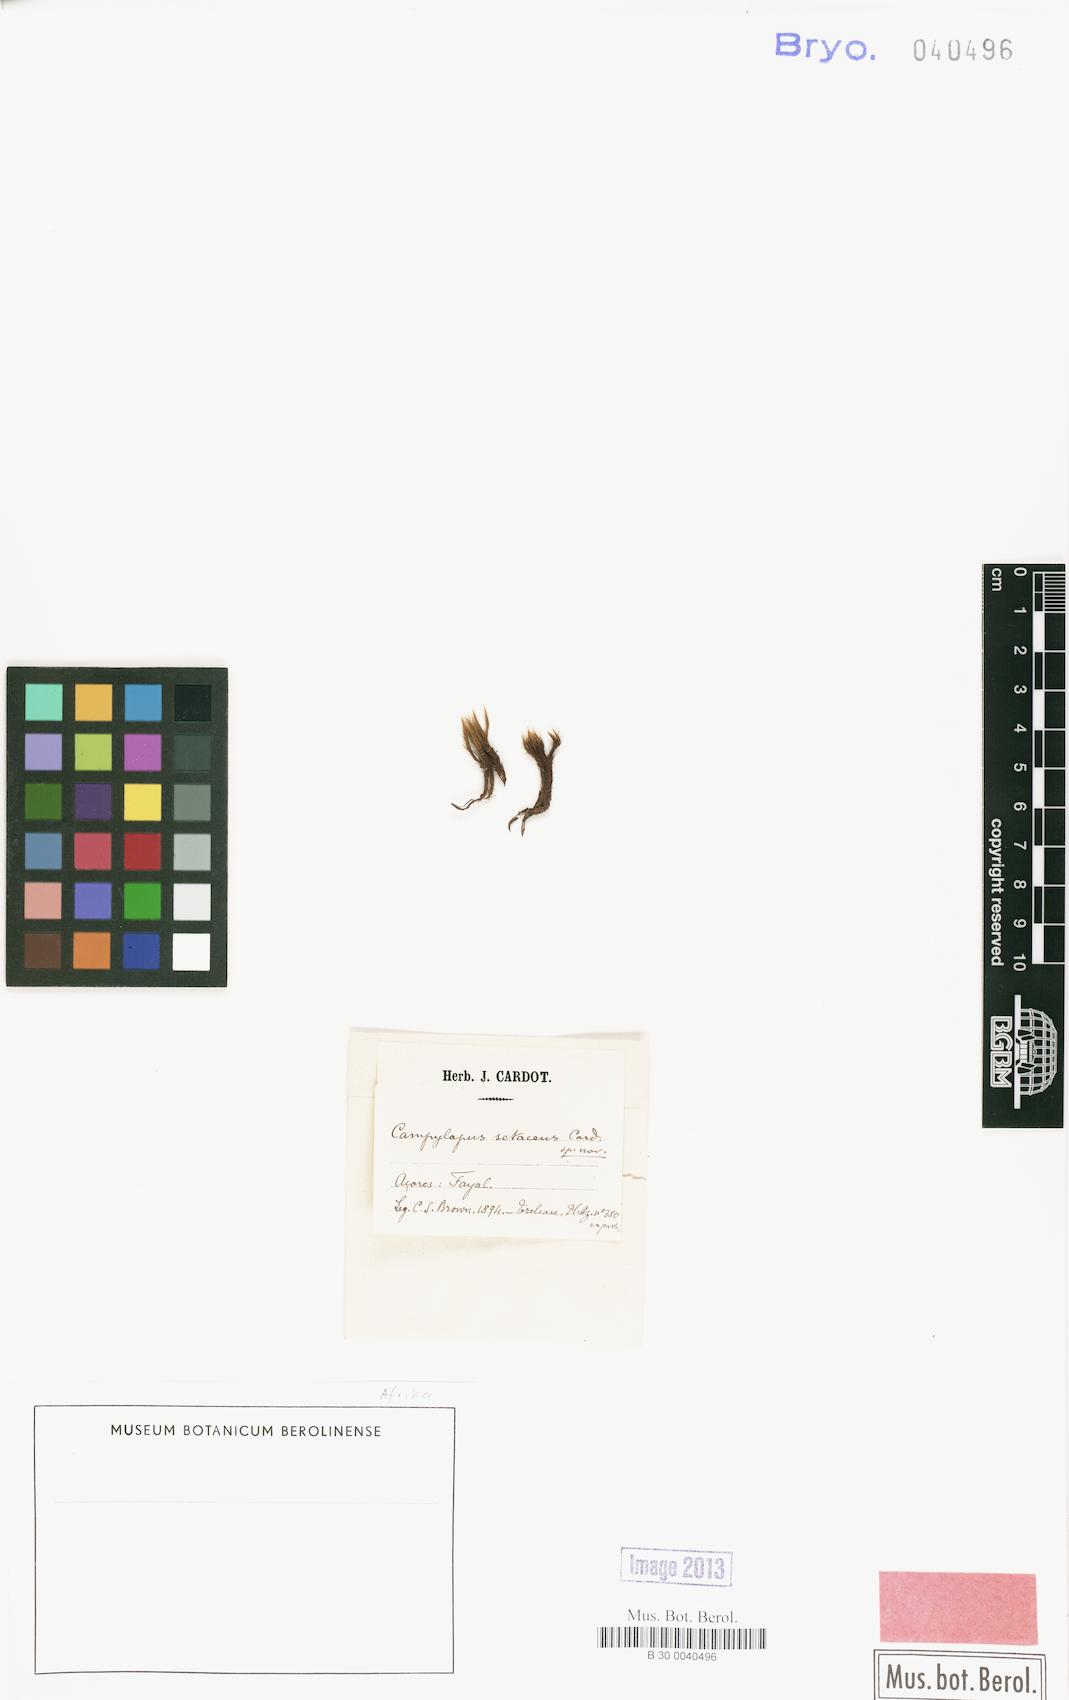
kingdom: Plantae
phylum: Bryophyta
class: Bryopsida
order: Dicranales
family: Leucobryaceae
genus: Campylopus
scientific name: Campylopus cygneus
